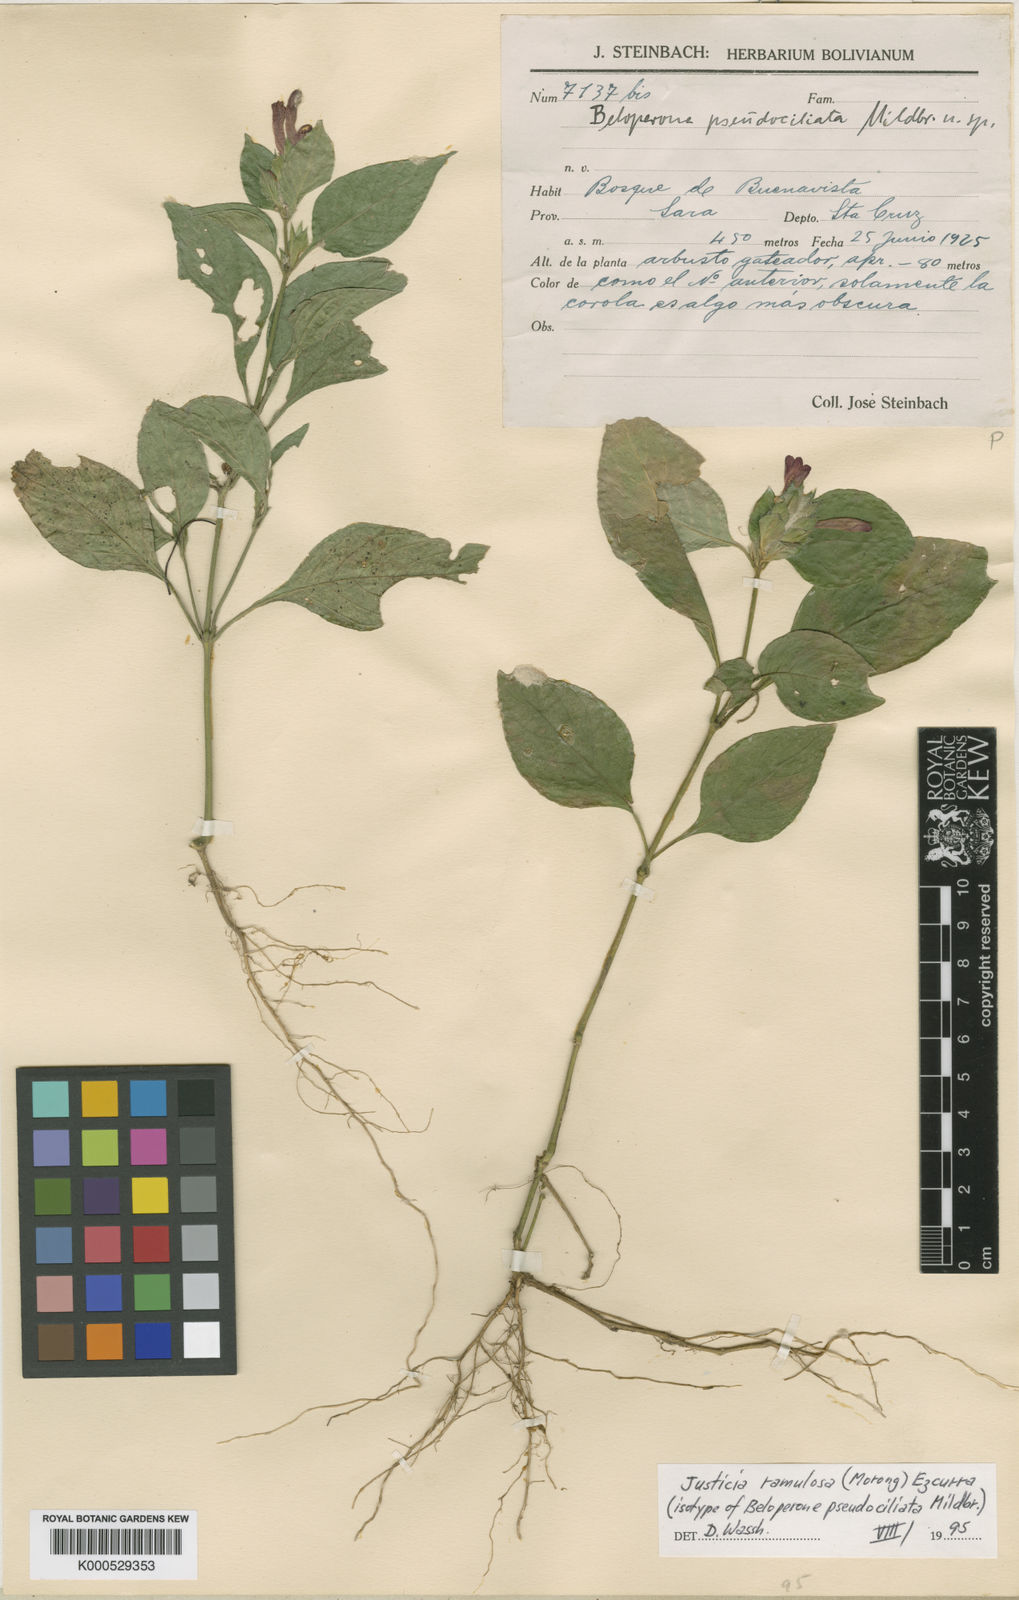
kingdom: Plantae
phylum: Tracheophyta
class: Magnoliopsida
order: Lamiales
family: Acanthaceae
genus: Justicia
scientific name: Justicia ramulosa
